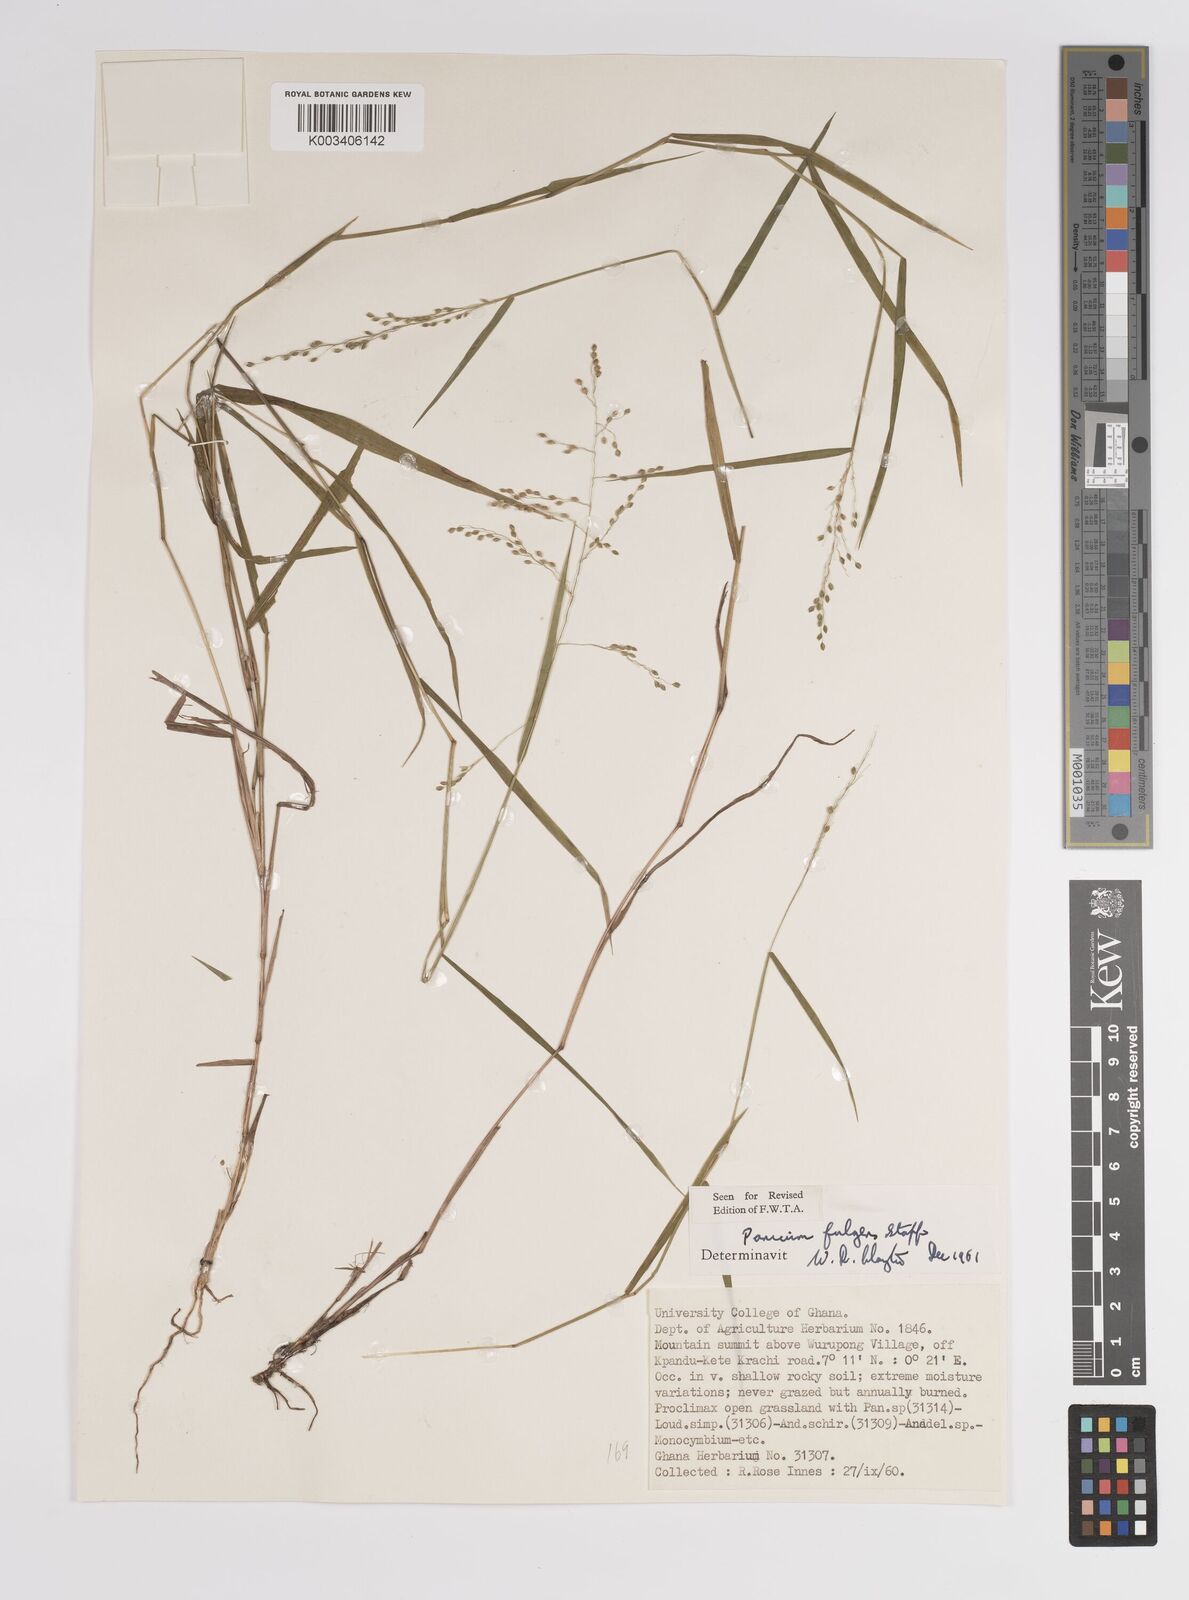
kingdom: Plantae
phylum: Tracheophyta
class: Liliopsida
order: Poales
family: Poaceae
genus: Trichanthecium
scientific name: Trichanthecium nervatum
